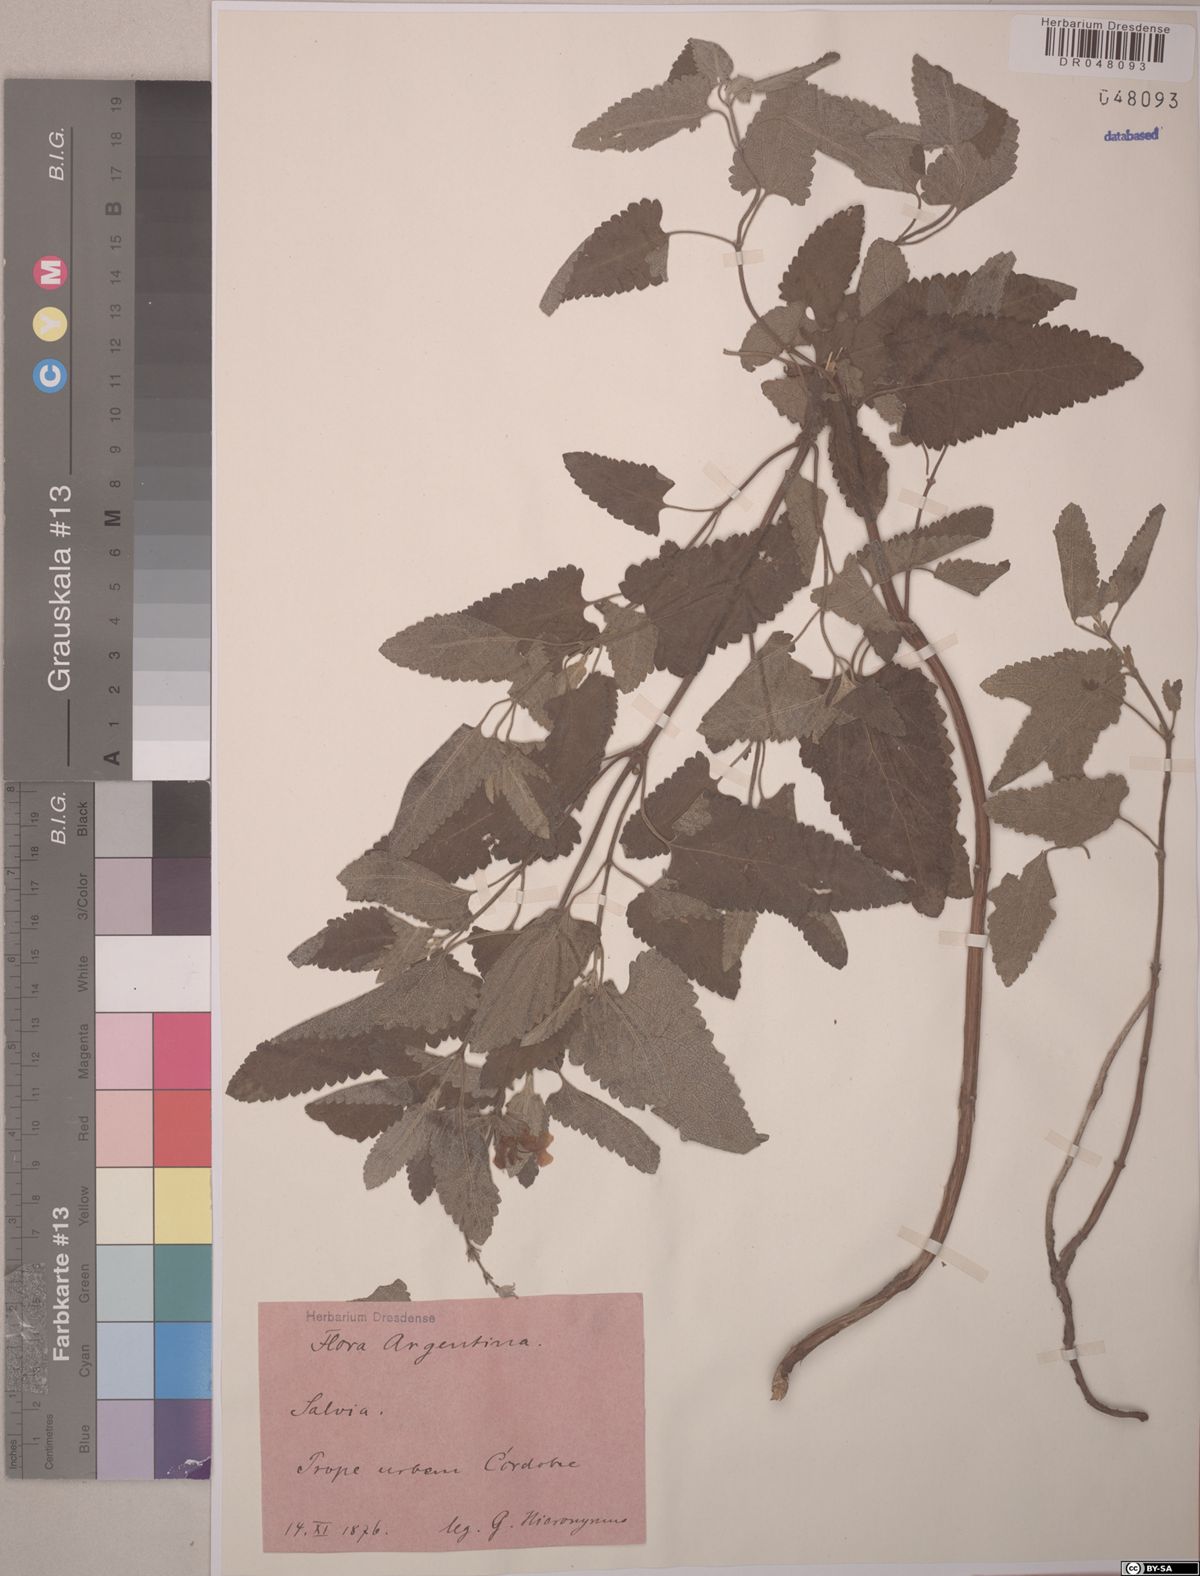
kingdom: Plantae
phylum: Tracheophyta
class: Magnoliopsida
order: Lamiales
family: Lamiaceae
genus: Salvia
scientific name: Salvia
